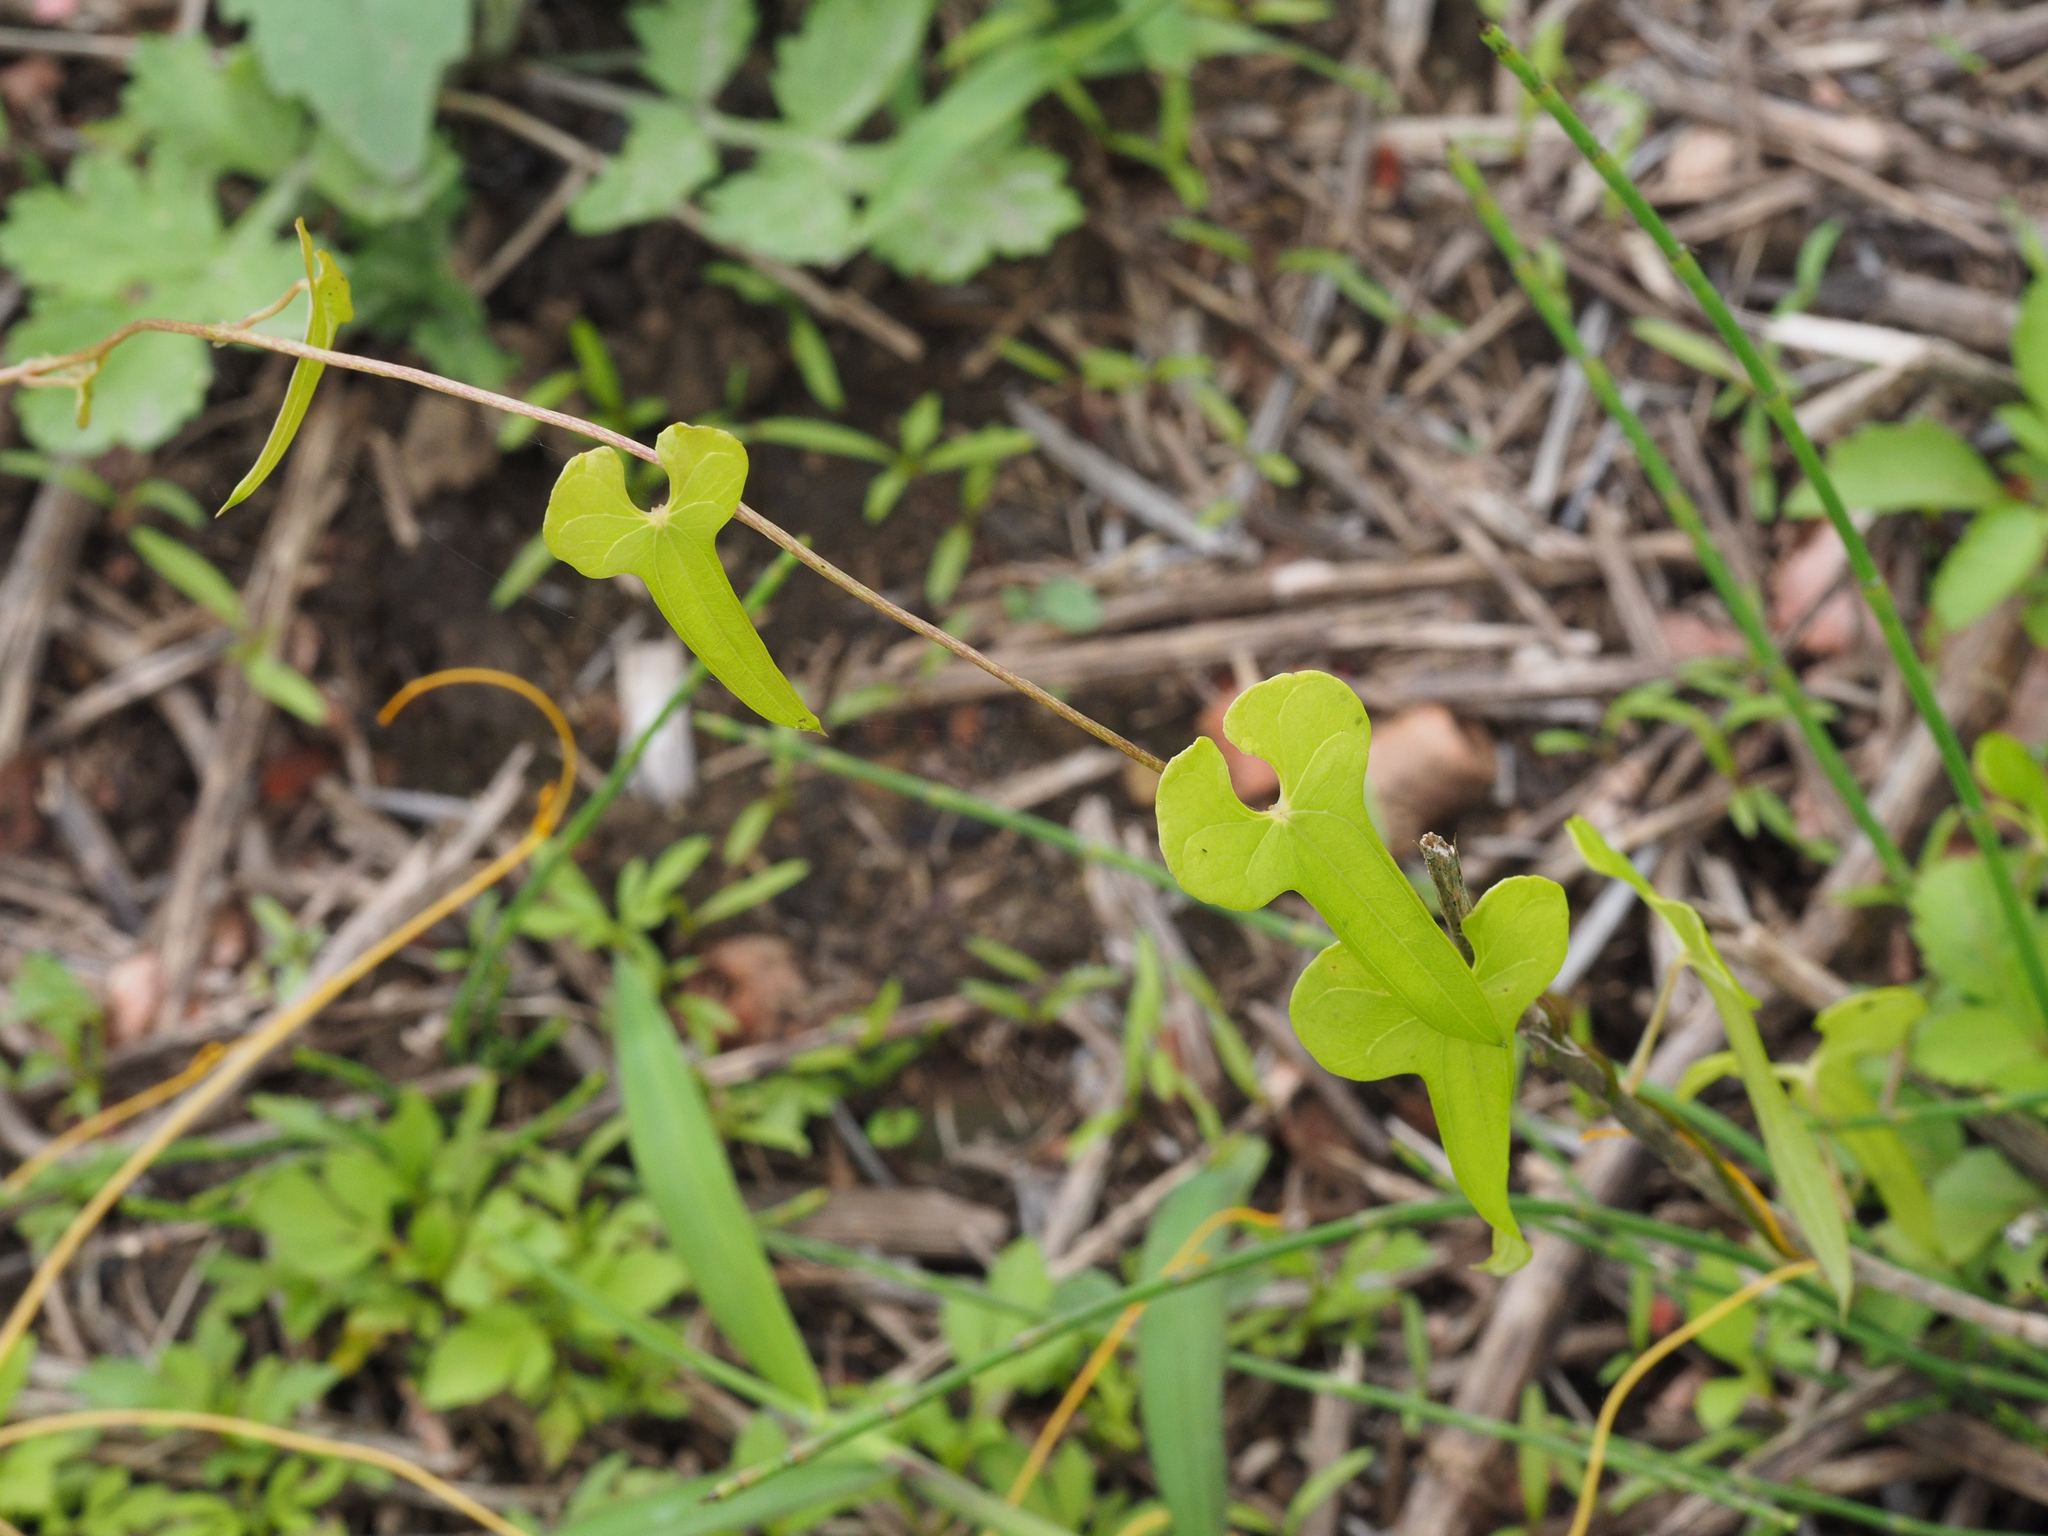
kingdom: Plantae
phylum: Tracheophyta
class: Liliopsida
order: Dioscoreales
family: Dioscoreaceae
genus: Dioscorea
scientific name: Dioscorea polystachya
